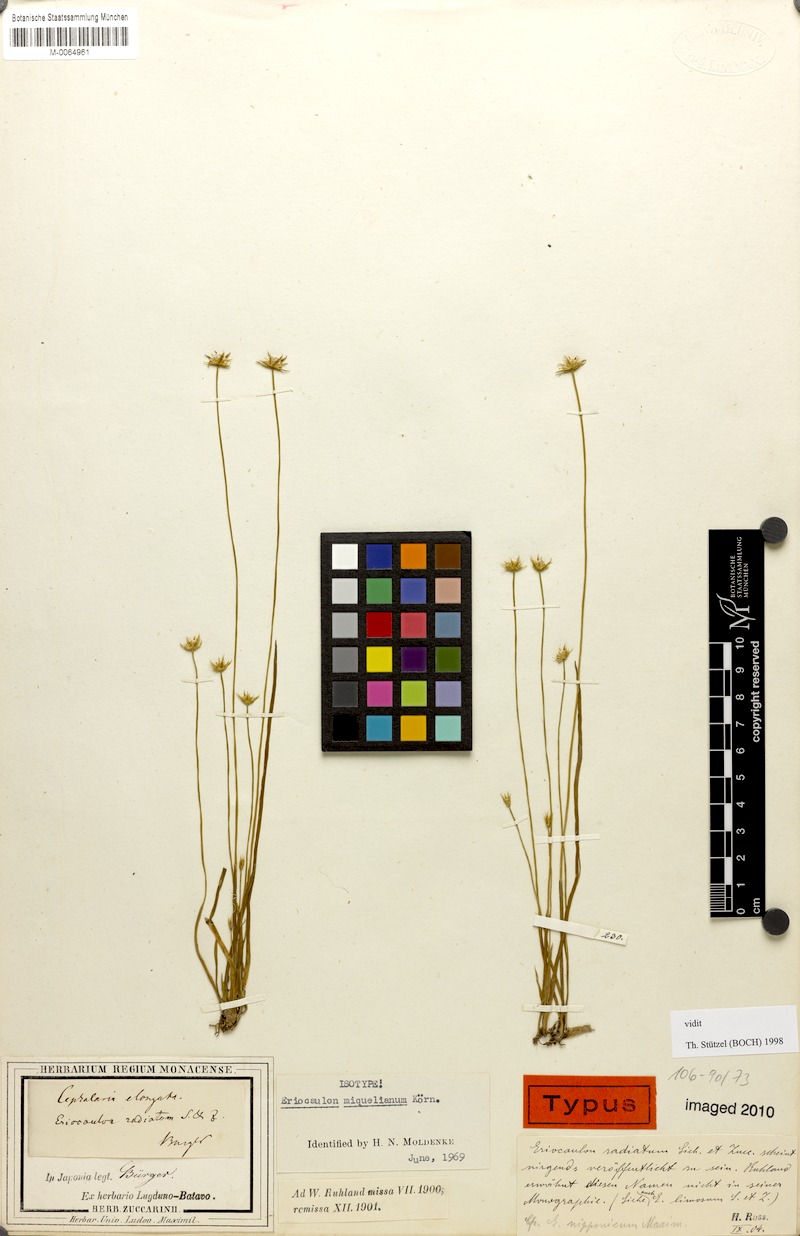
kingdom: Plantae
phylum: Tracheophyta
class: Liliopsida
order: Poales
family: Eriocaulaceae
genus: Eriocaulon
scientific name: Eriocaulon miquelianum
